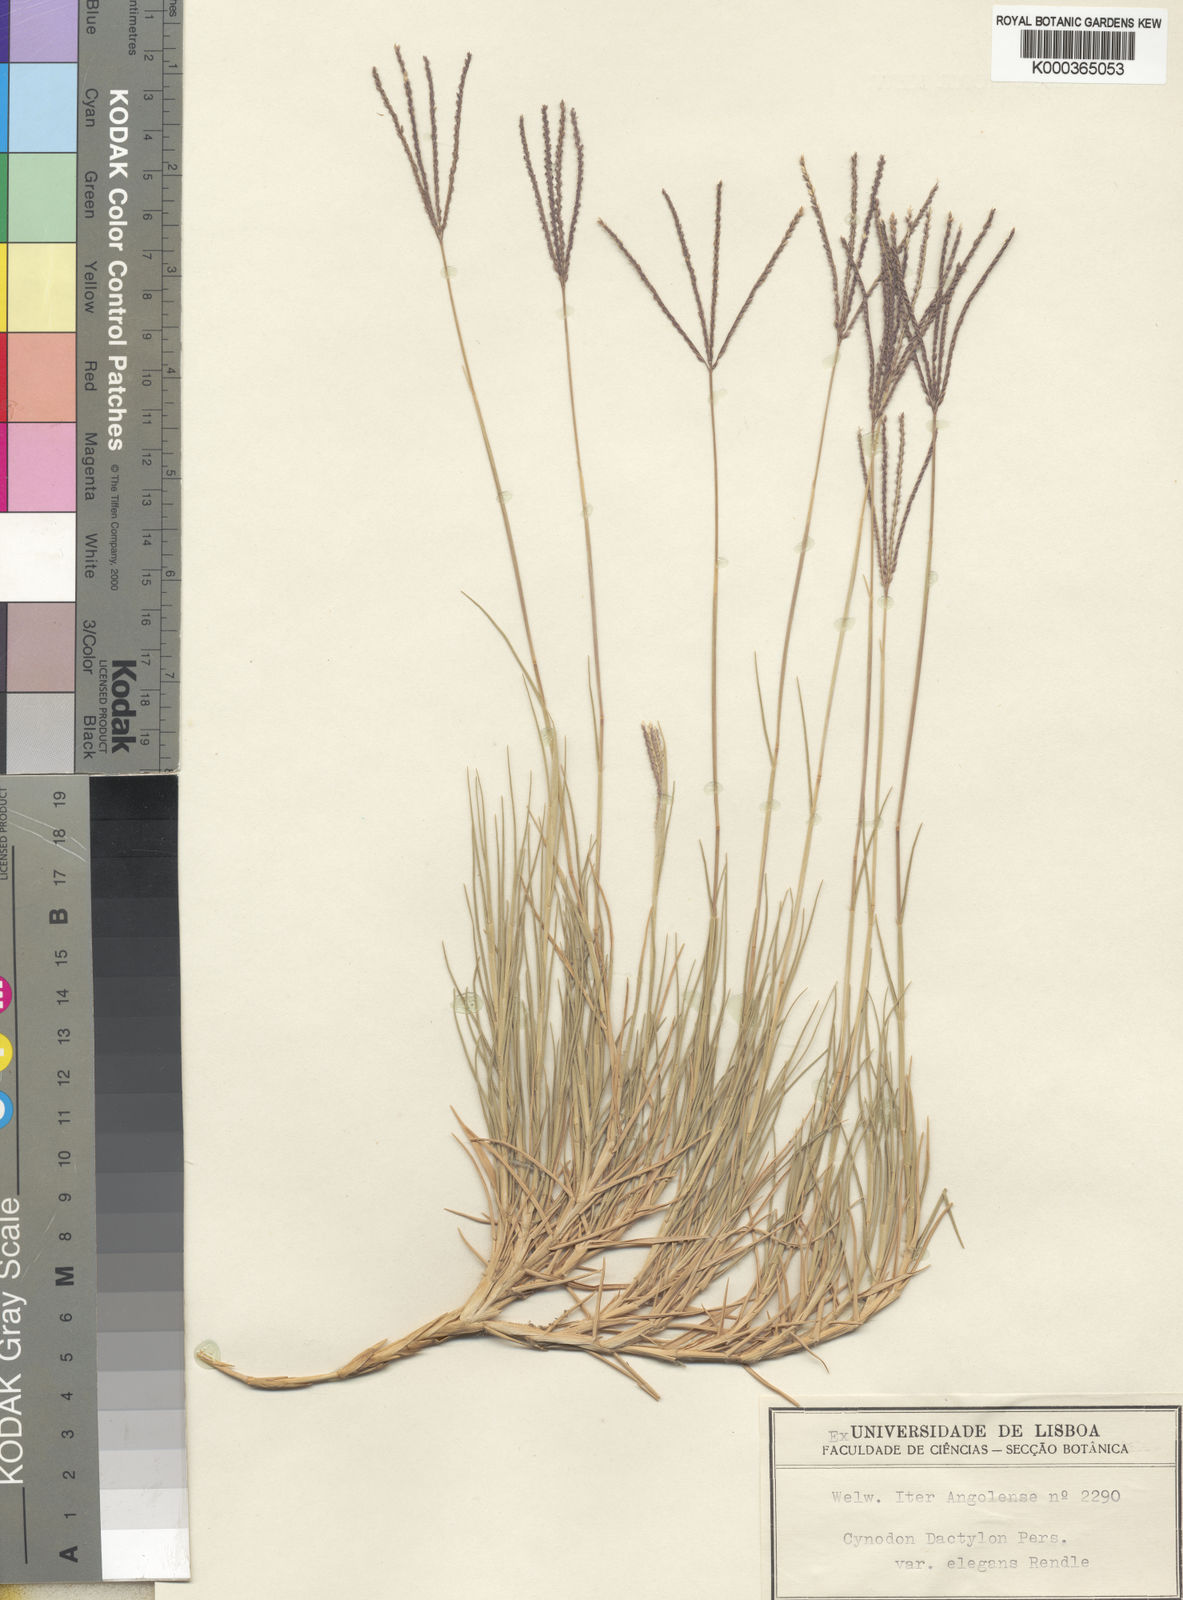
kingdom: Plantae
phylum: Tracheophyta
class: Liliopsida
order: Poales
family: Poaceae
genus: Cynodon
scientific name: Cynodon dactylon
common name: Bermuda grass
